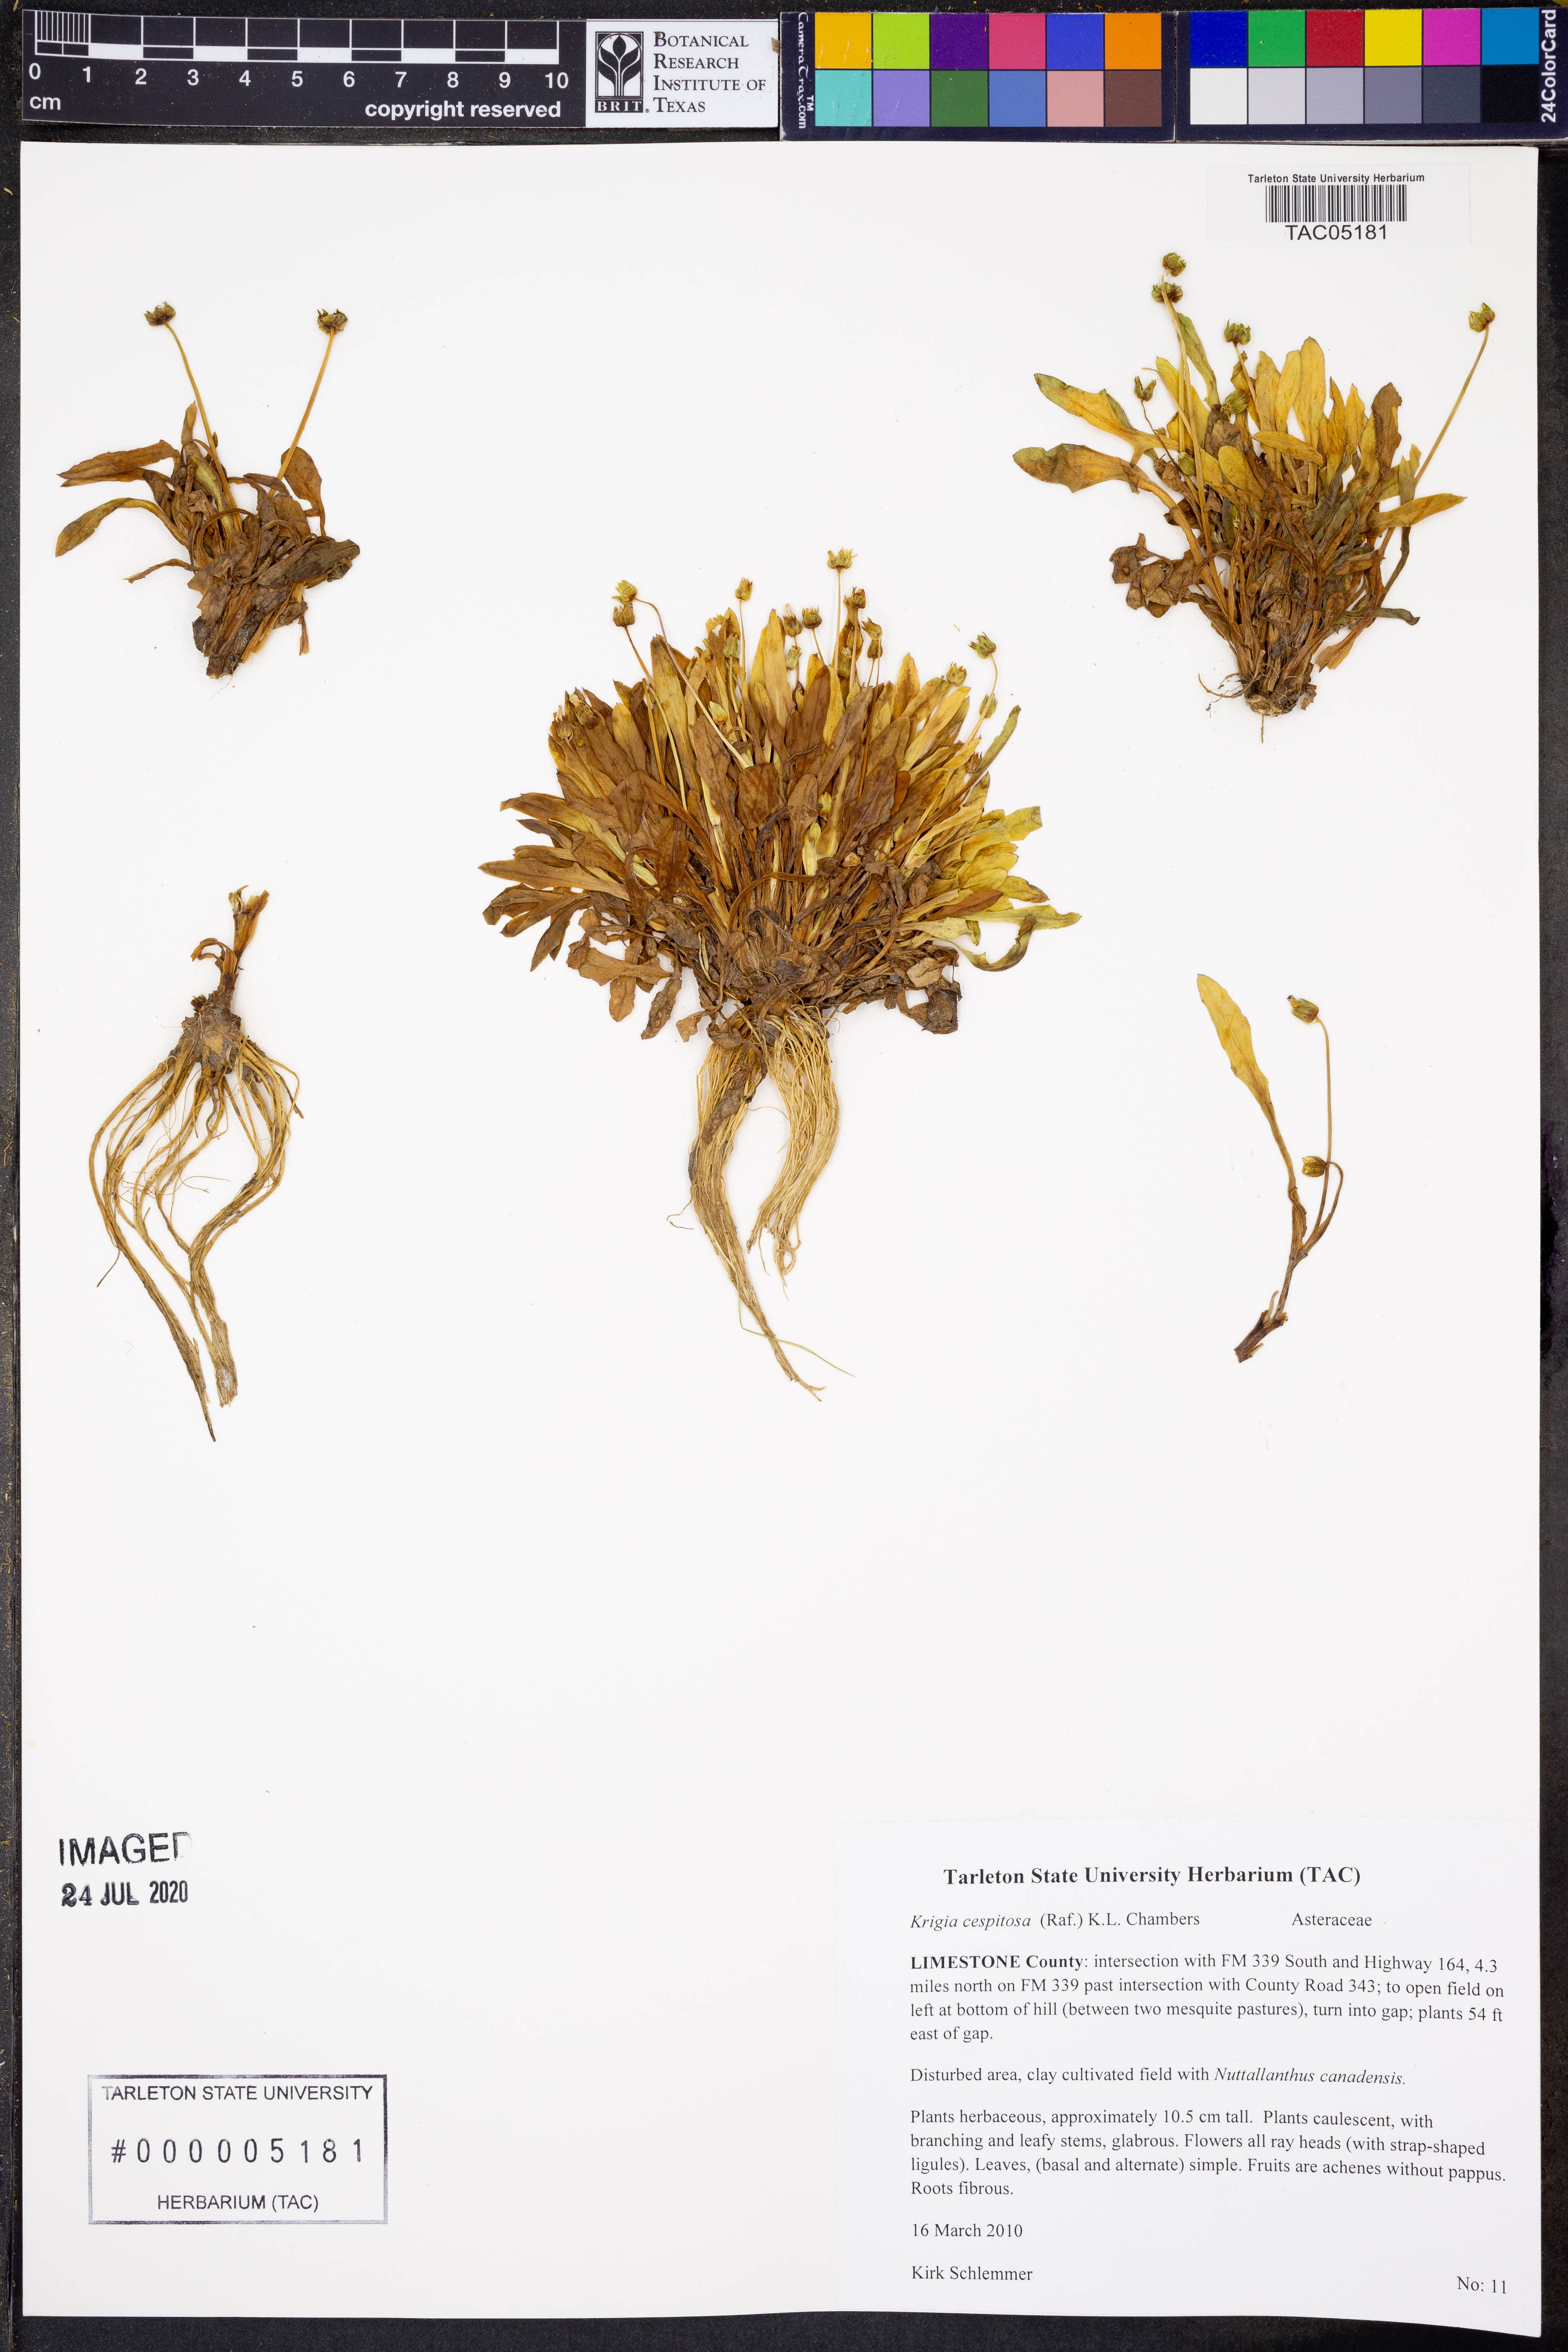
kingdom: Plantae
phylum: Tracheophyta
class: Magnoliopsida
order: Asterales
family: Asteraceae
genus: Krigia
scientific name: Krigia cespitosa
